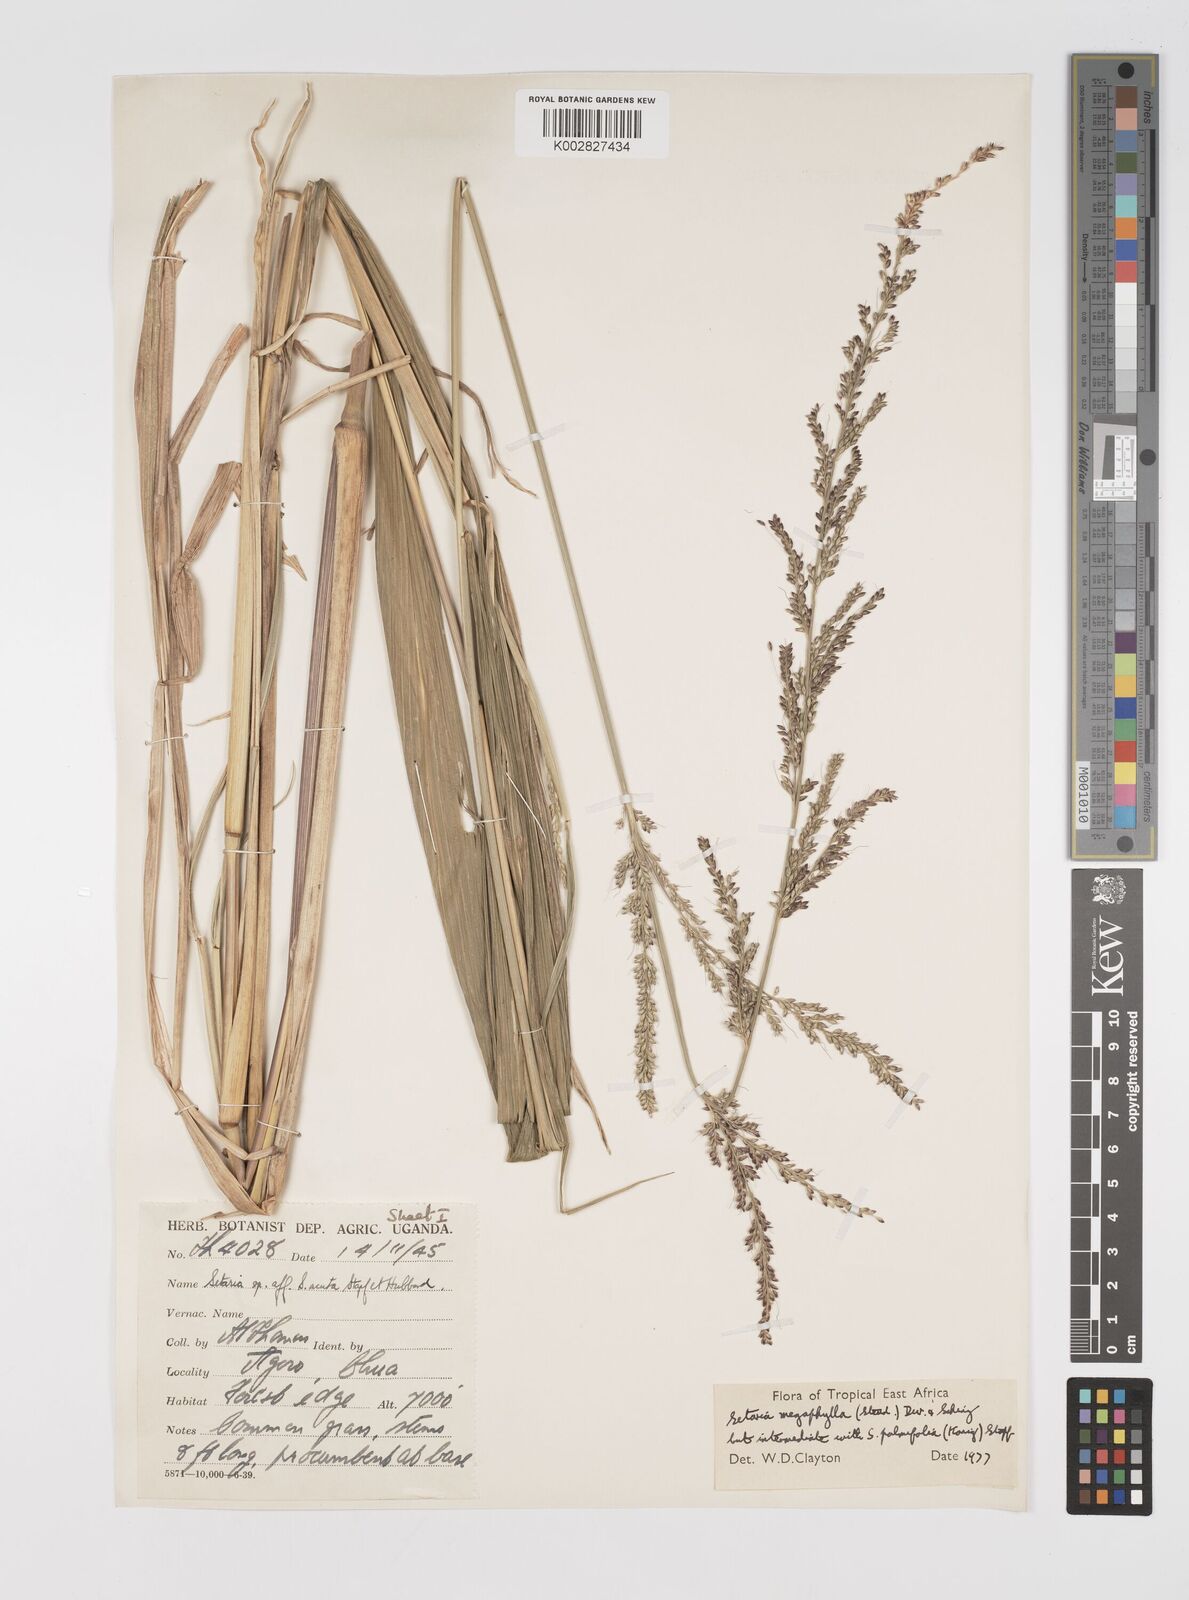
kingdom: Plantae
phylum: Tracheophyta
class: Liliopsida
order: Poales
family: Poaceae
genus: Setaria
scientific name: Setaria megaphylla
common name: Bigleaf bristlegrass
